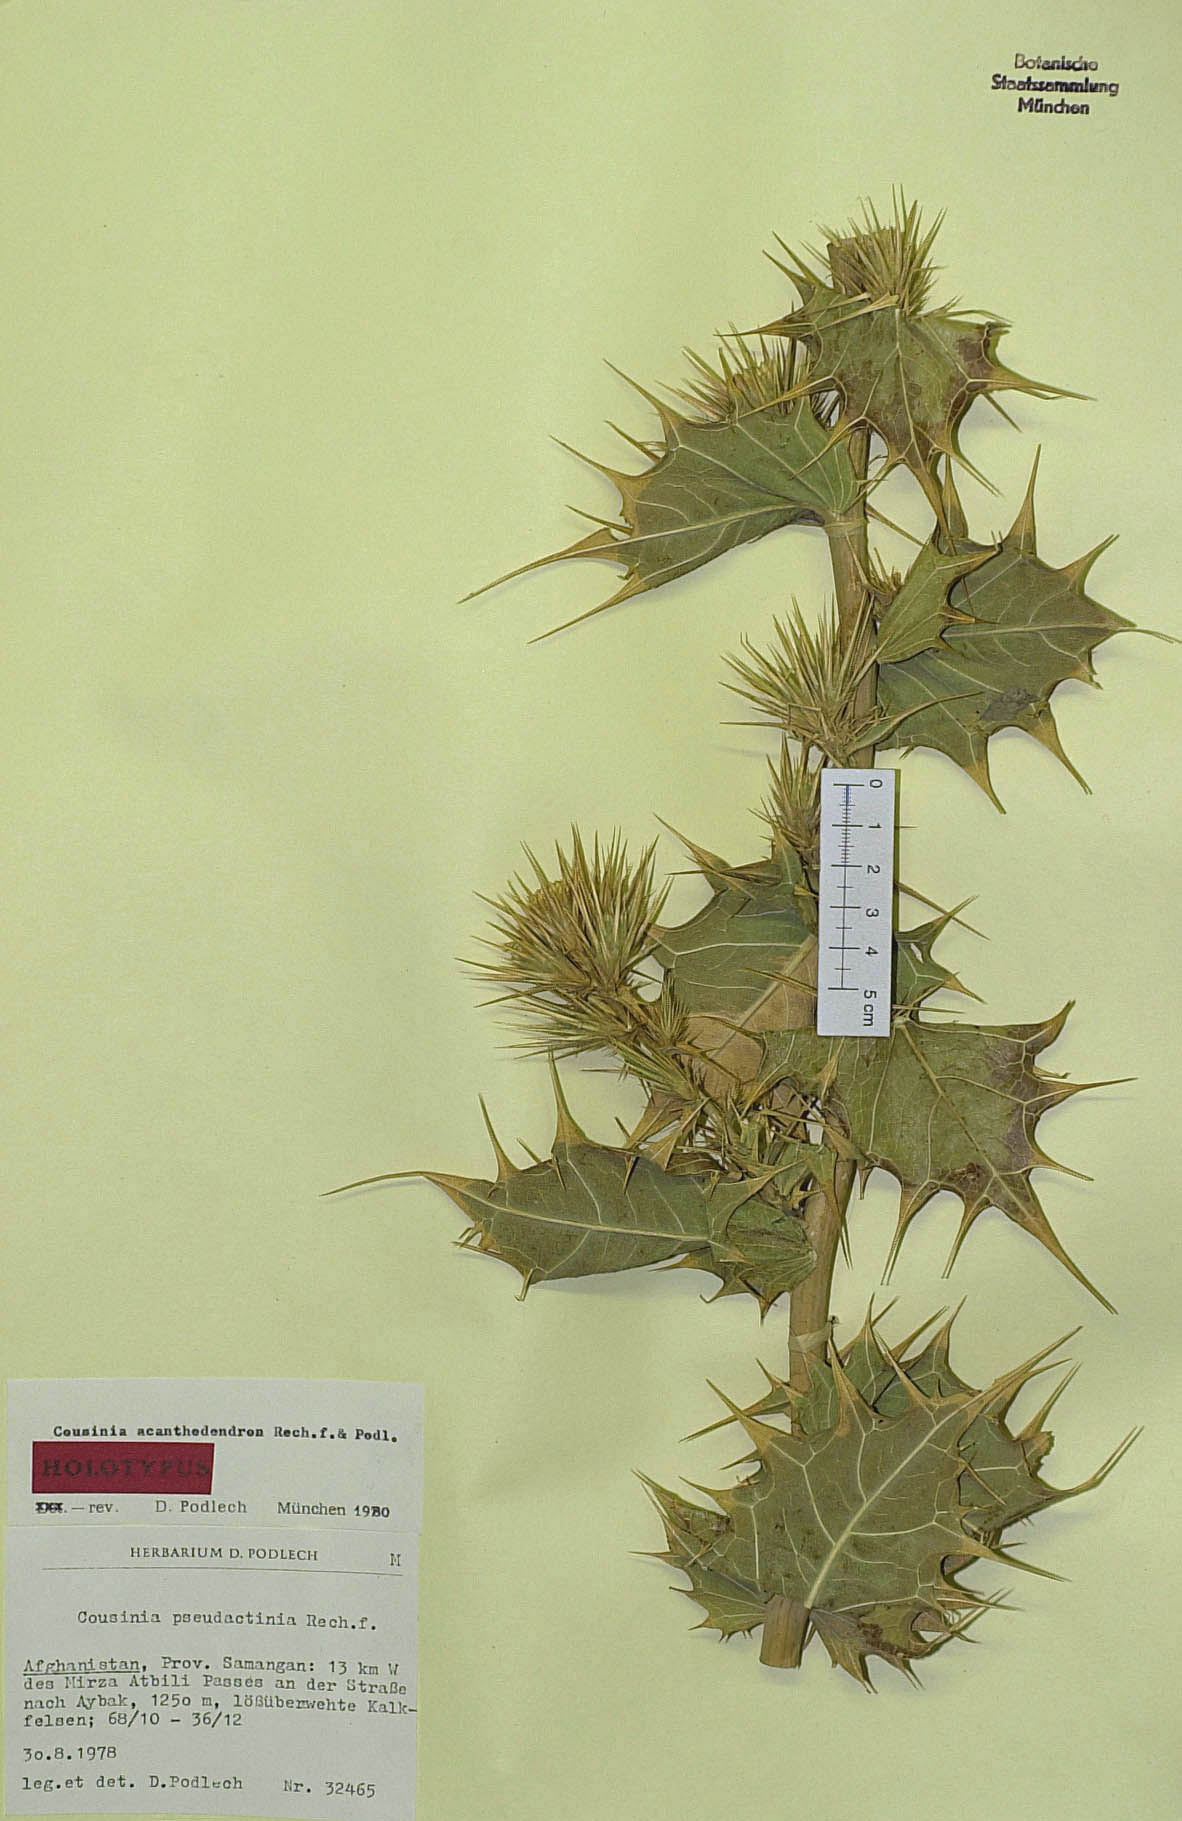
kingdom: Plantae
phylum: Tracheophyta
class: Magnoliopsida
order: Asterales
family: Asteraceae
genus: Cousinia
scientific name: Cousinia acanthodendron
